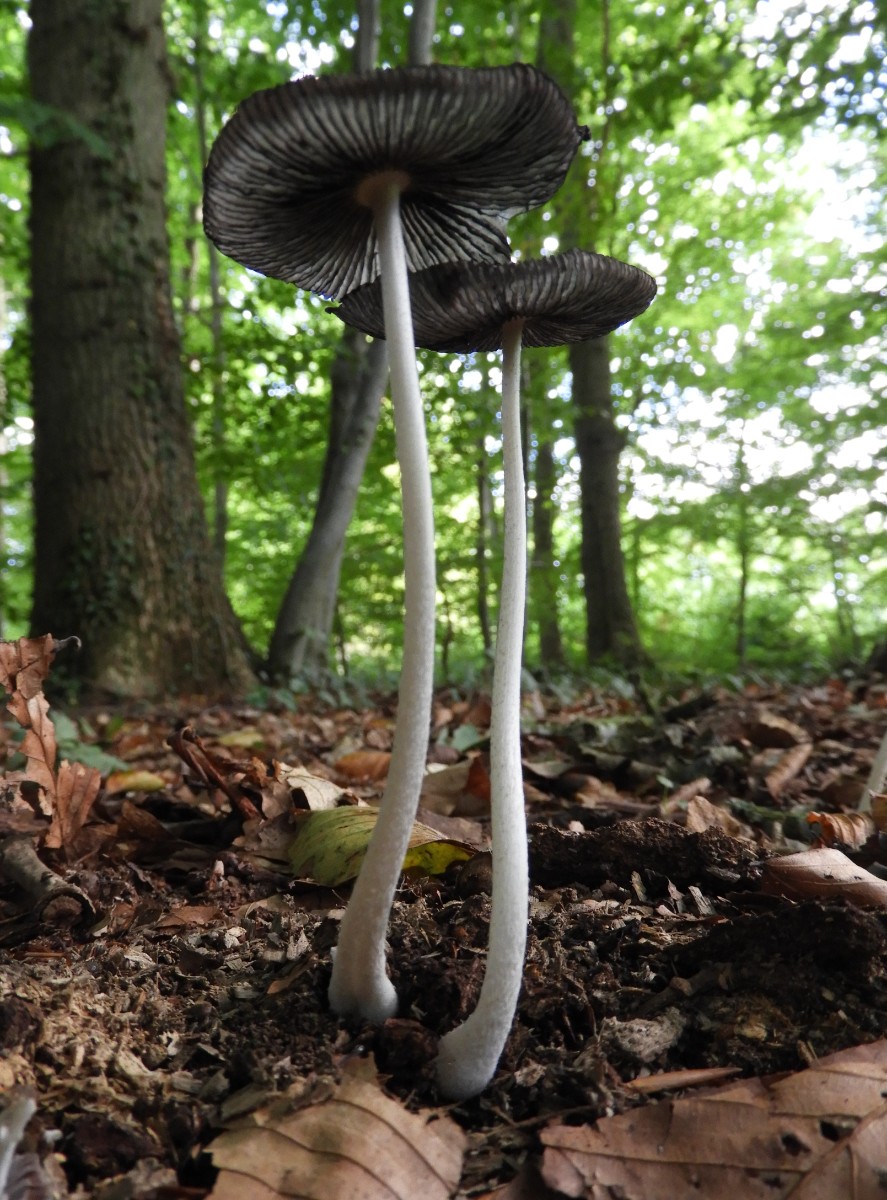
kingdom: Fungi
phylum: Basidiomycota
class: Agaricomycetes
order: Agaricales
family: Psathyrellaceae
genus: Coprinopsis
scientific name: Coprinopsis lagopus
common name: dunstokket blækhat
